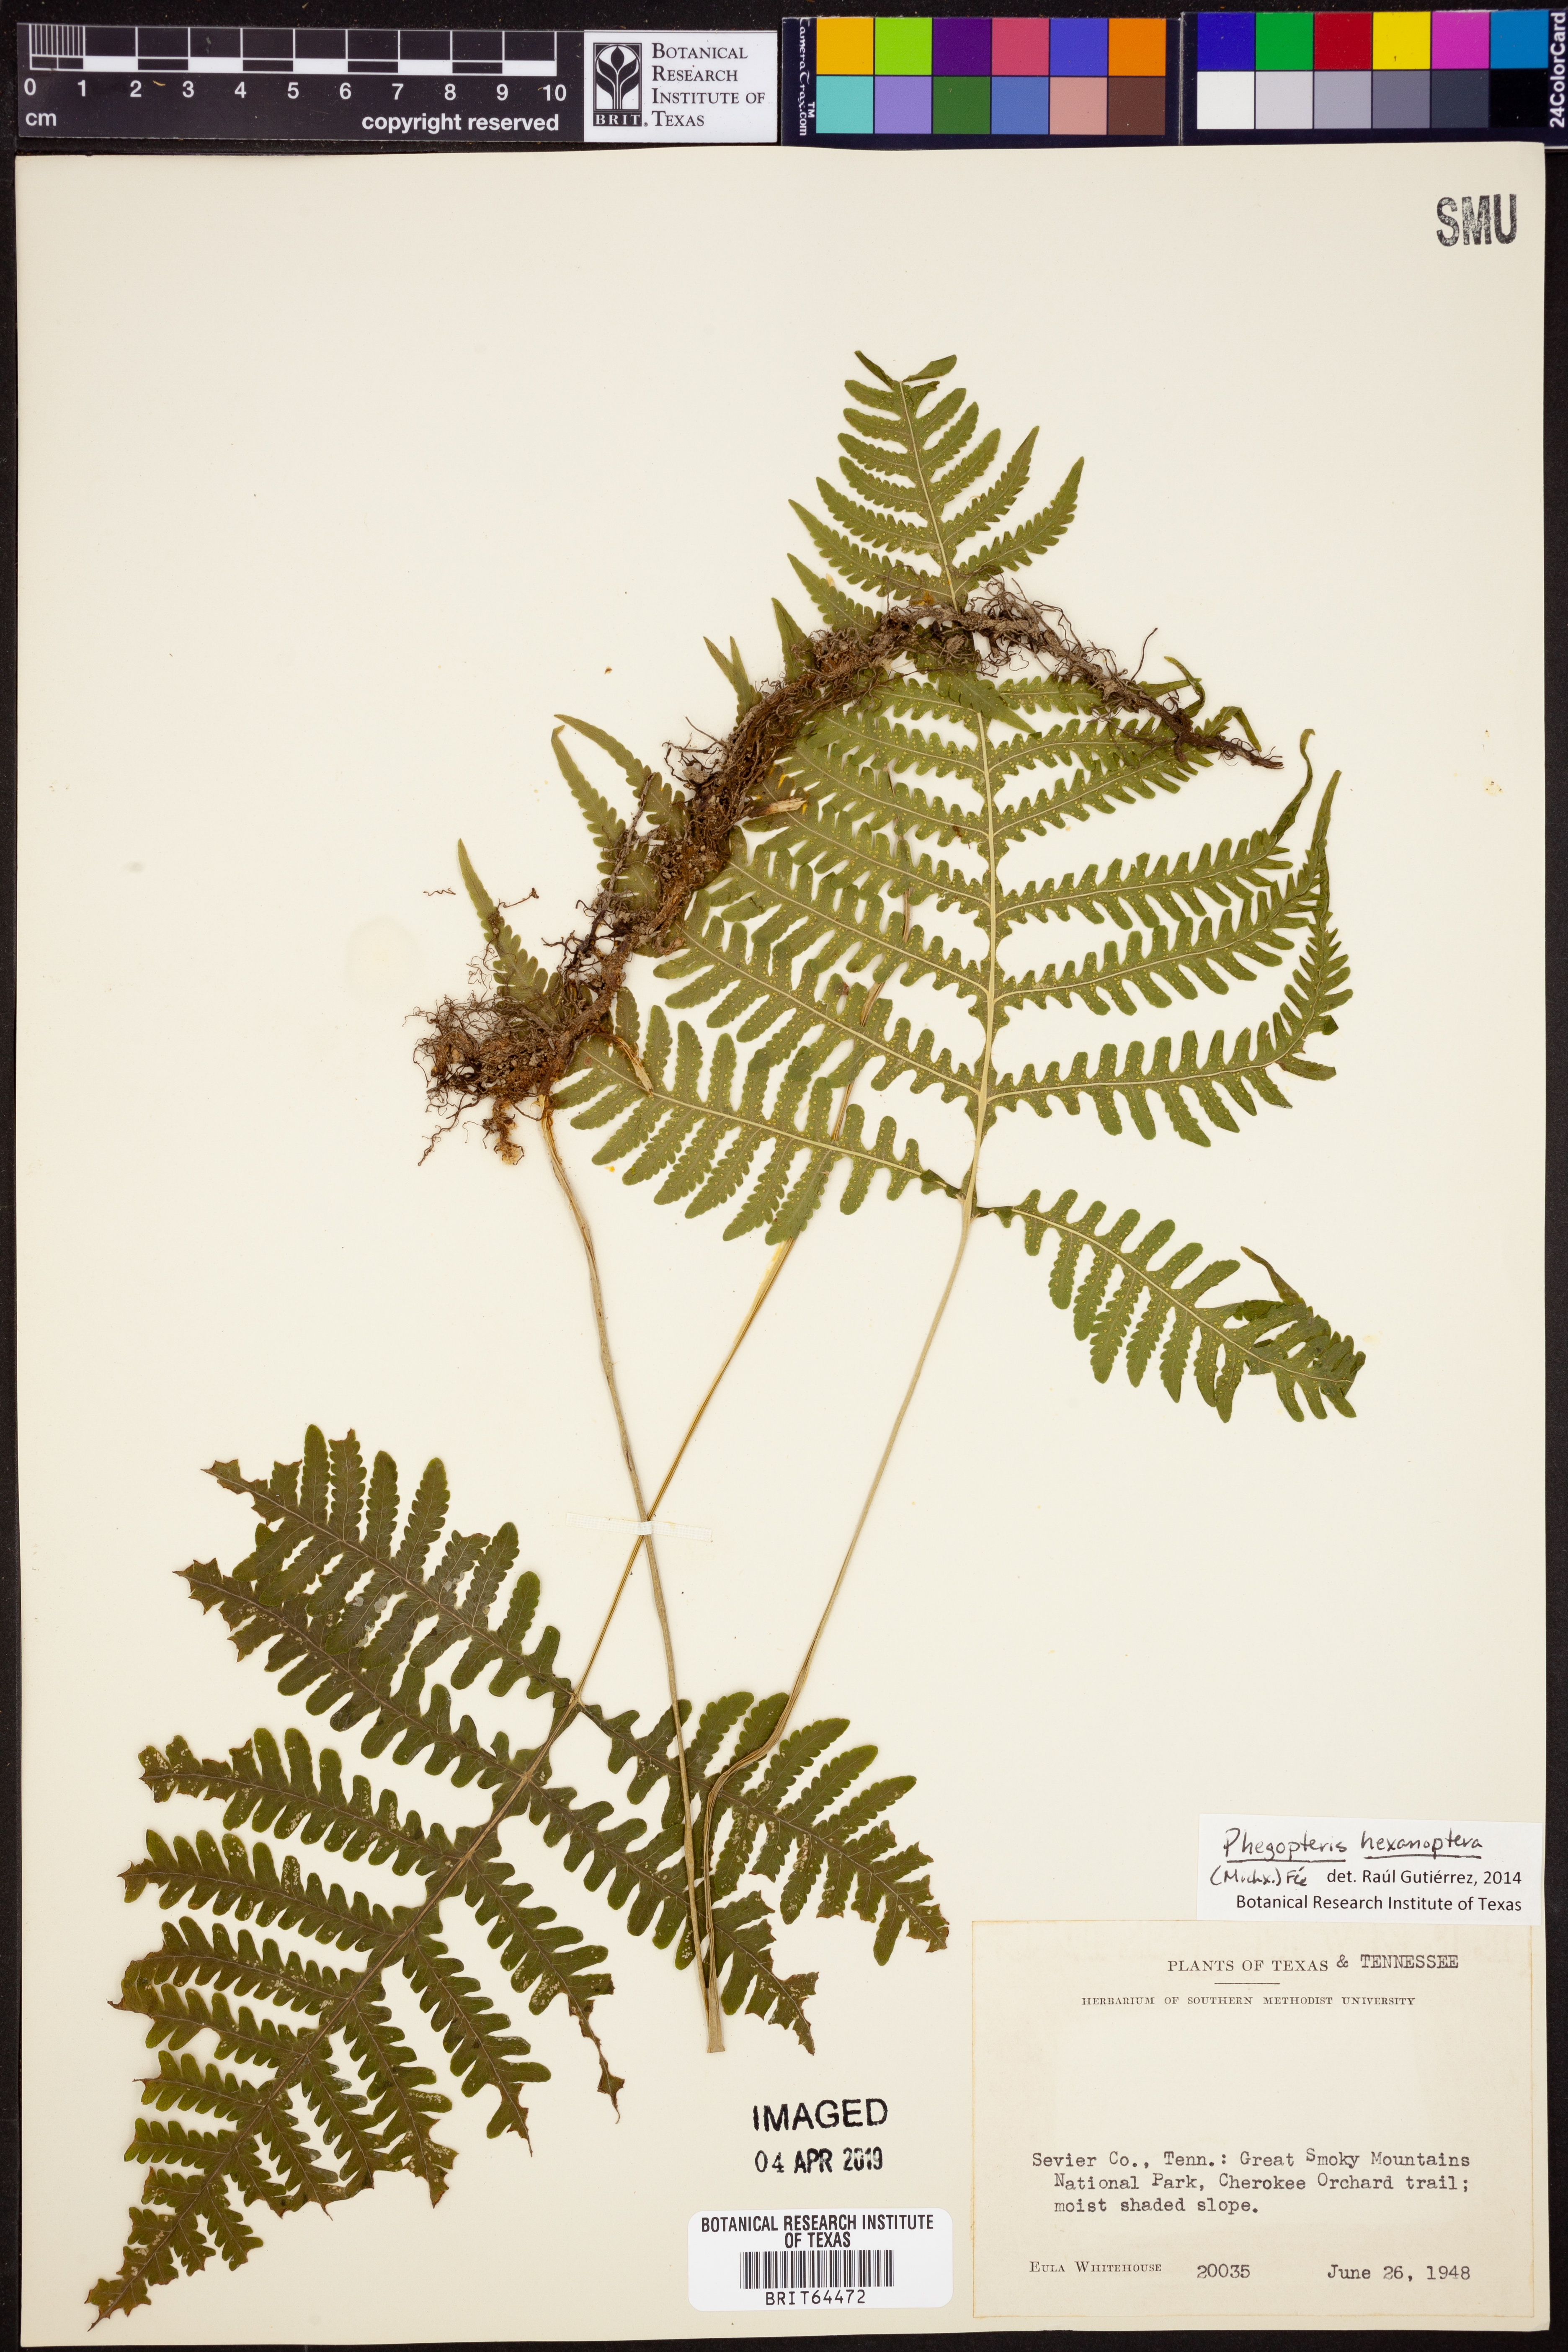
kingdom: Plantae
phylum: Tracheophyta
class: Polypodiopsida
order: Polypodiales
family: Thelypteridaceae
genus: Phegopteris
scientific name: Phegopteris hexagonoptera
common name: Broad beech fern
